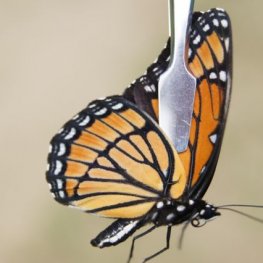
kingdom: Animalia
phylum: Arthropoda
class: Insecta
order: Lepidoptera
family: Nymphalidae
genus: Limenitis
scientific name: Limenitis archippus
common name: Viceroy
